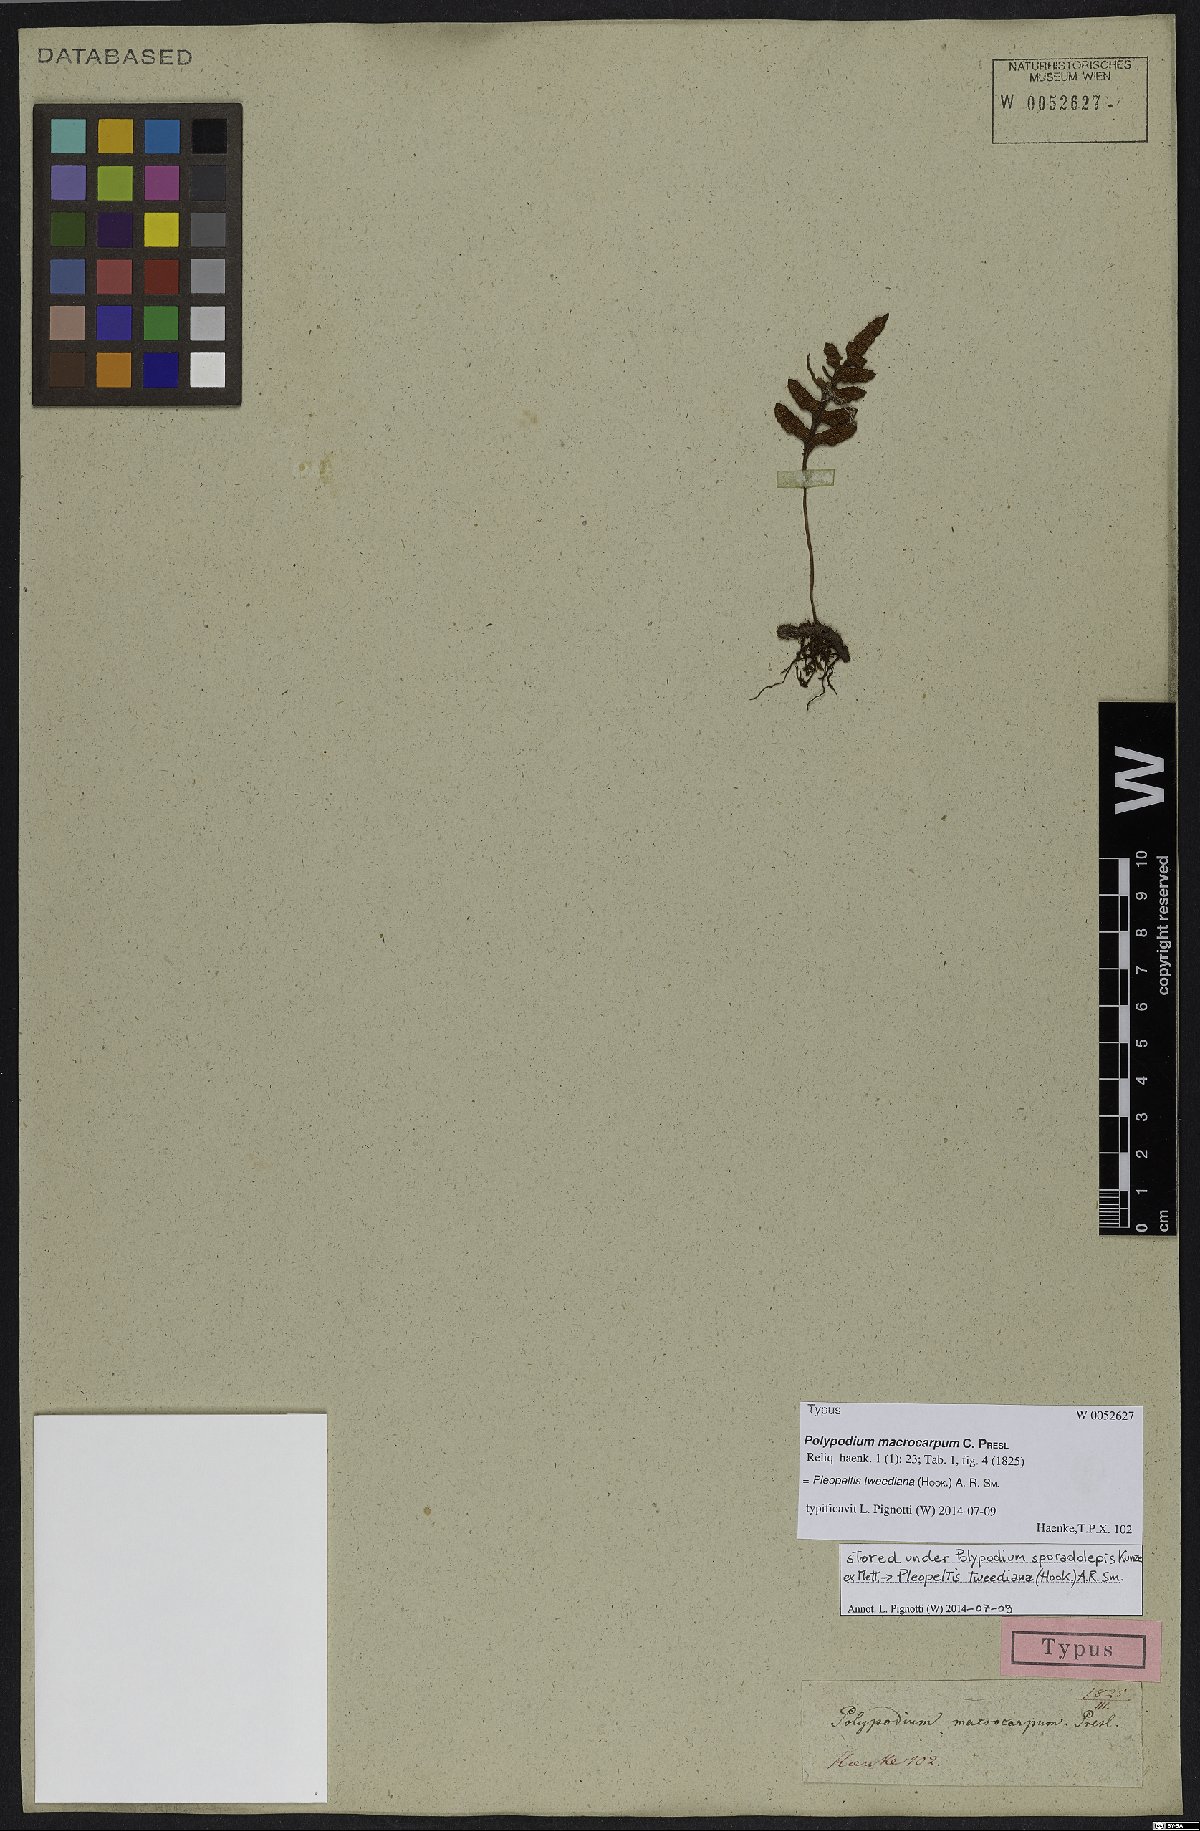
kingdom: Plantae
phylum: Tracheophyta
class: Polypodiopsida
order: Polypodiales
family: Polypodiaceae
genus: Pleopeltis
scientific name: Pleopeltis tweediana
